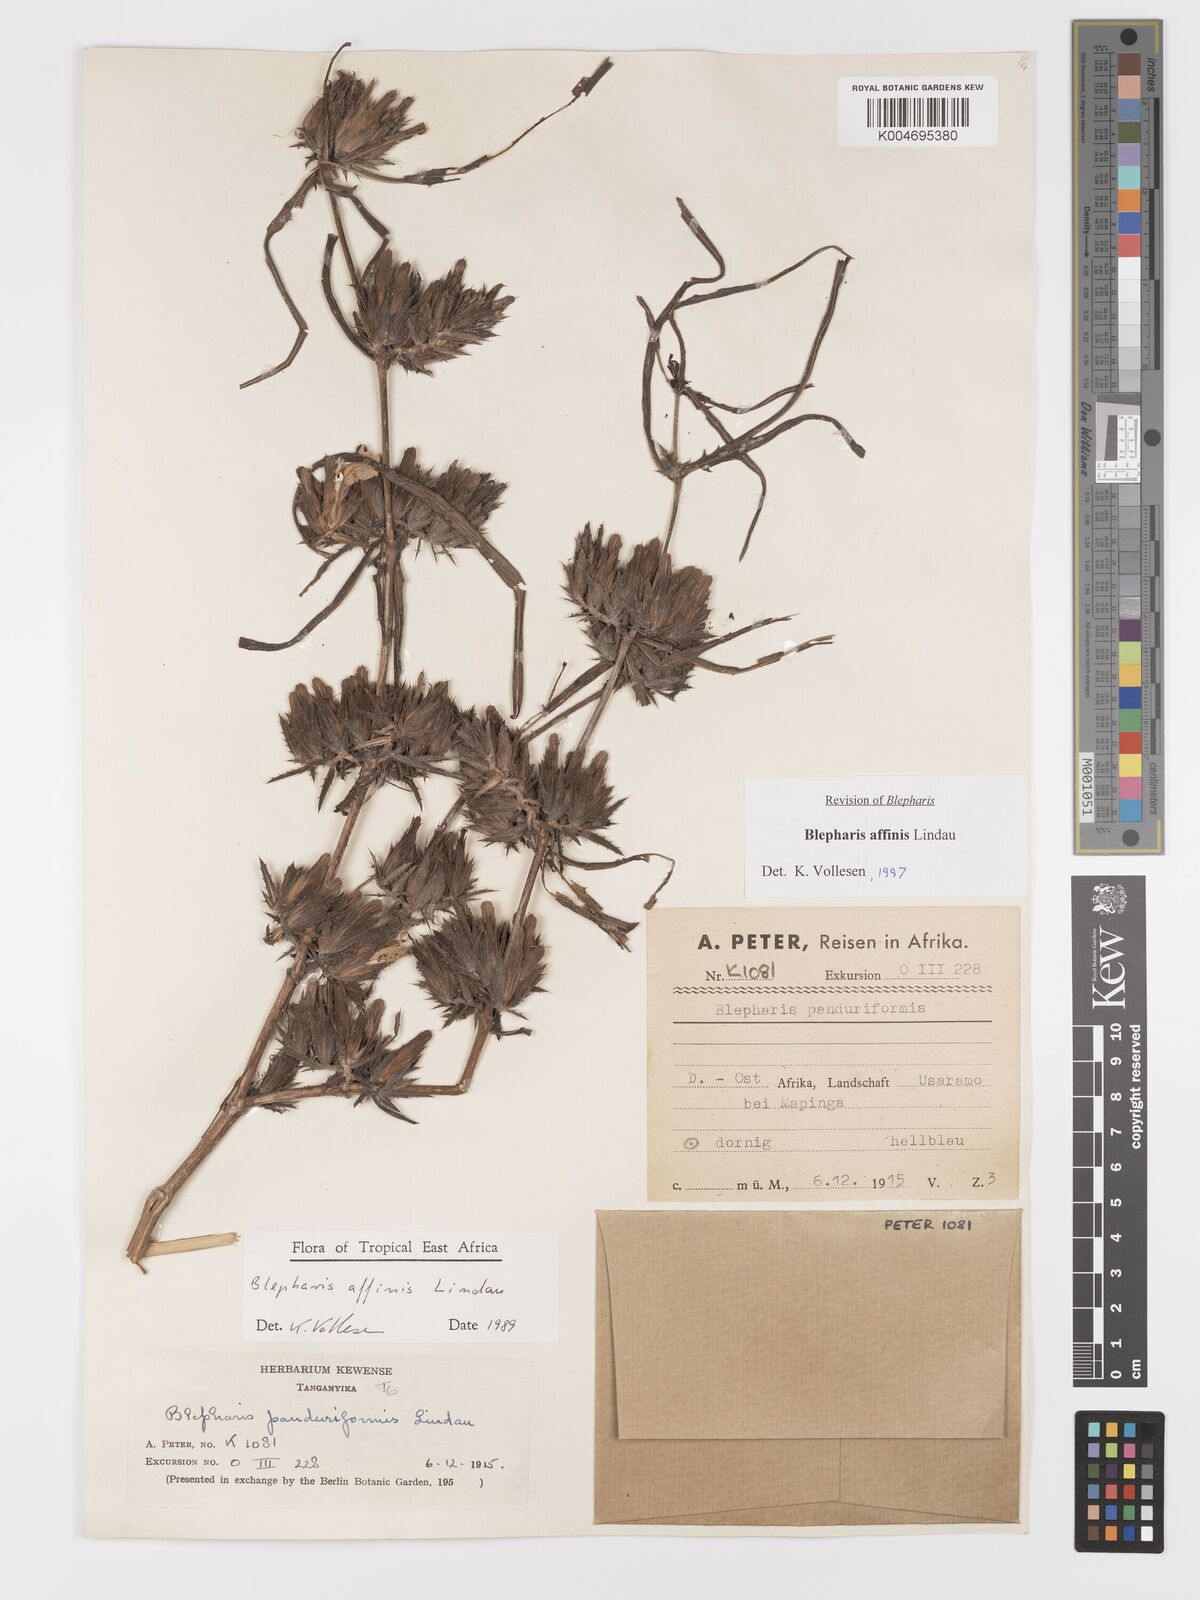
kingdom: Plantae
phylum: Tracheophyta
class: Magnoliopsida
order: Lamiales
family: Acanthaceae
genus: Blepharis
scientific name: Blepharis affinis
